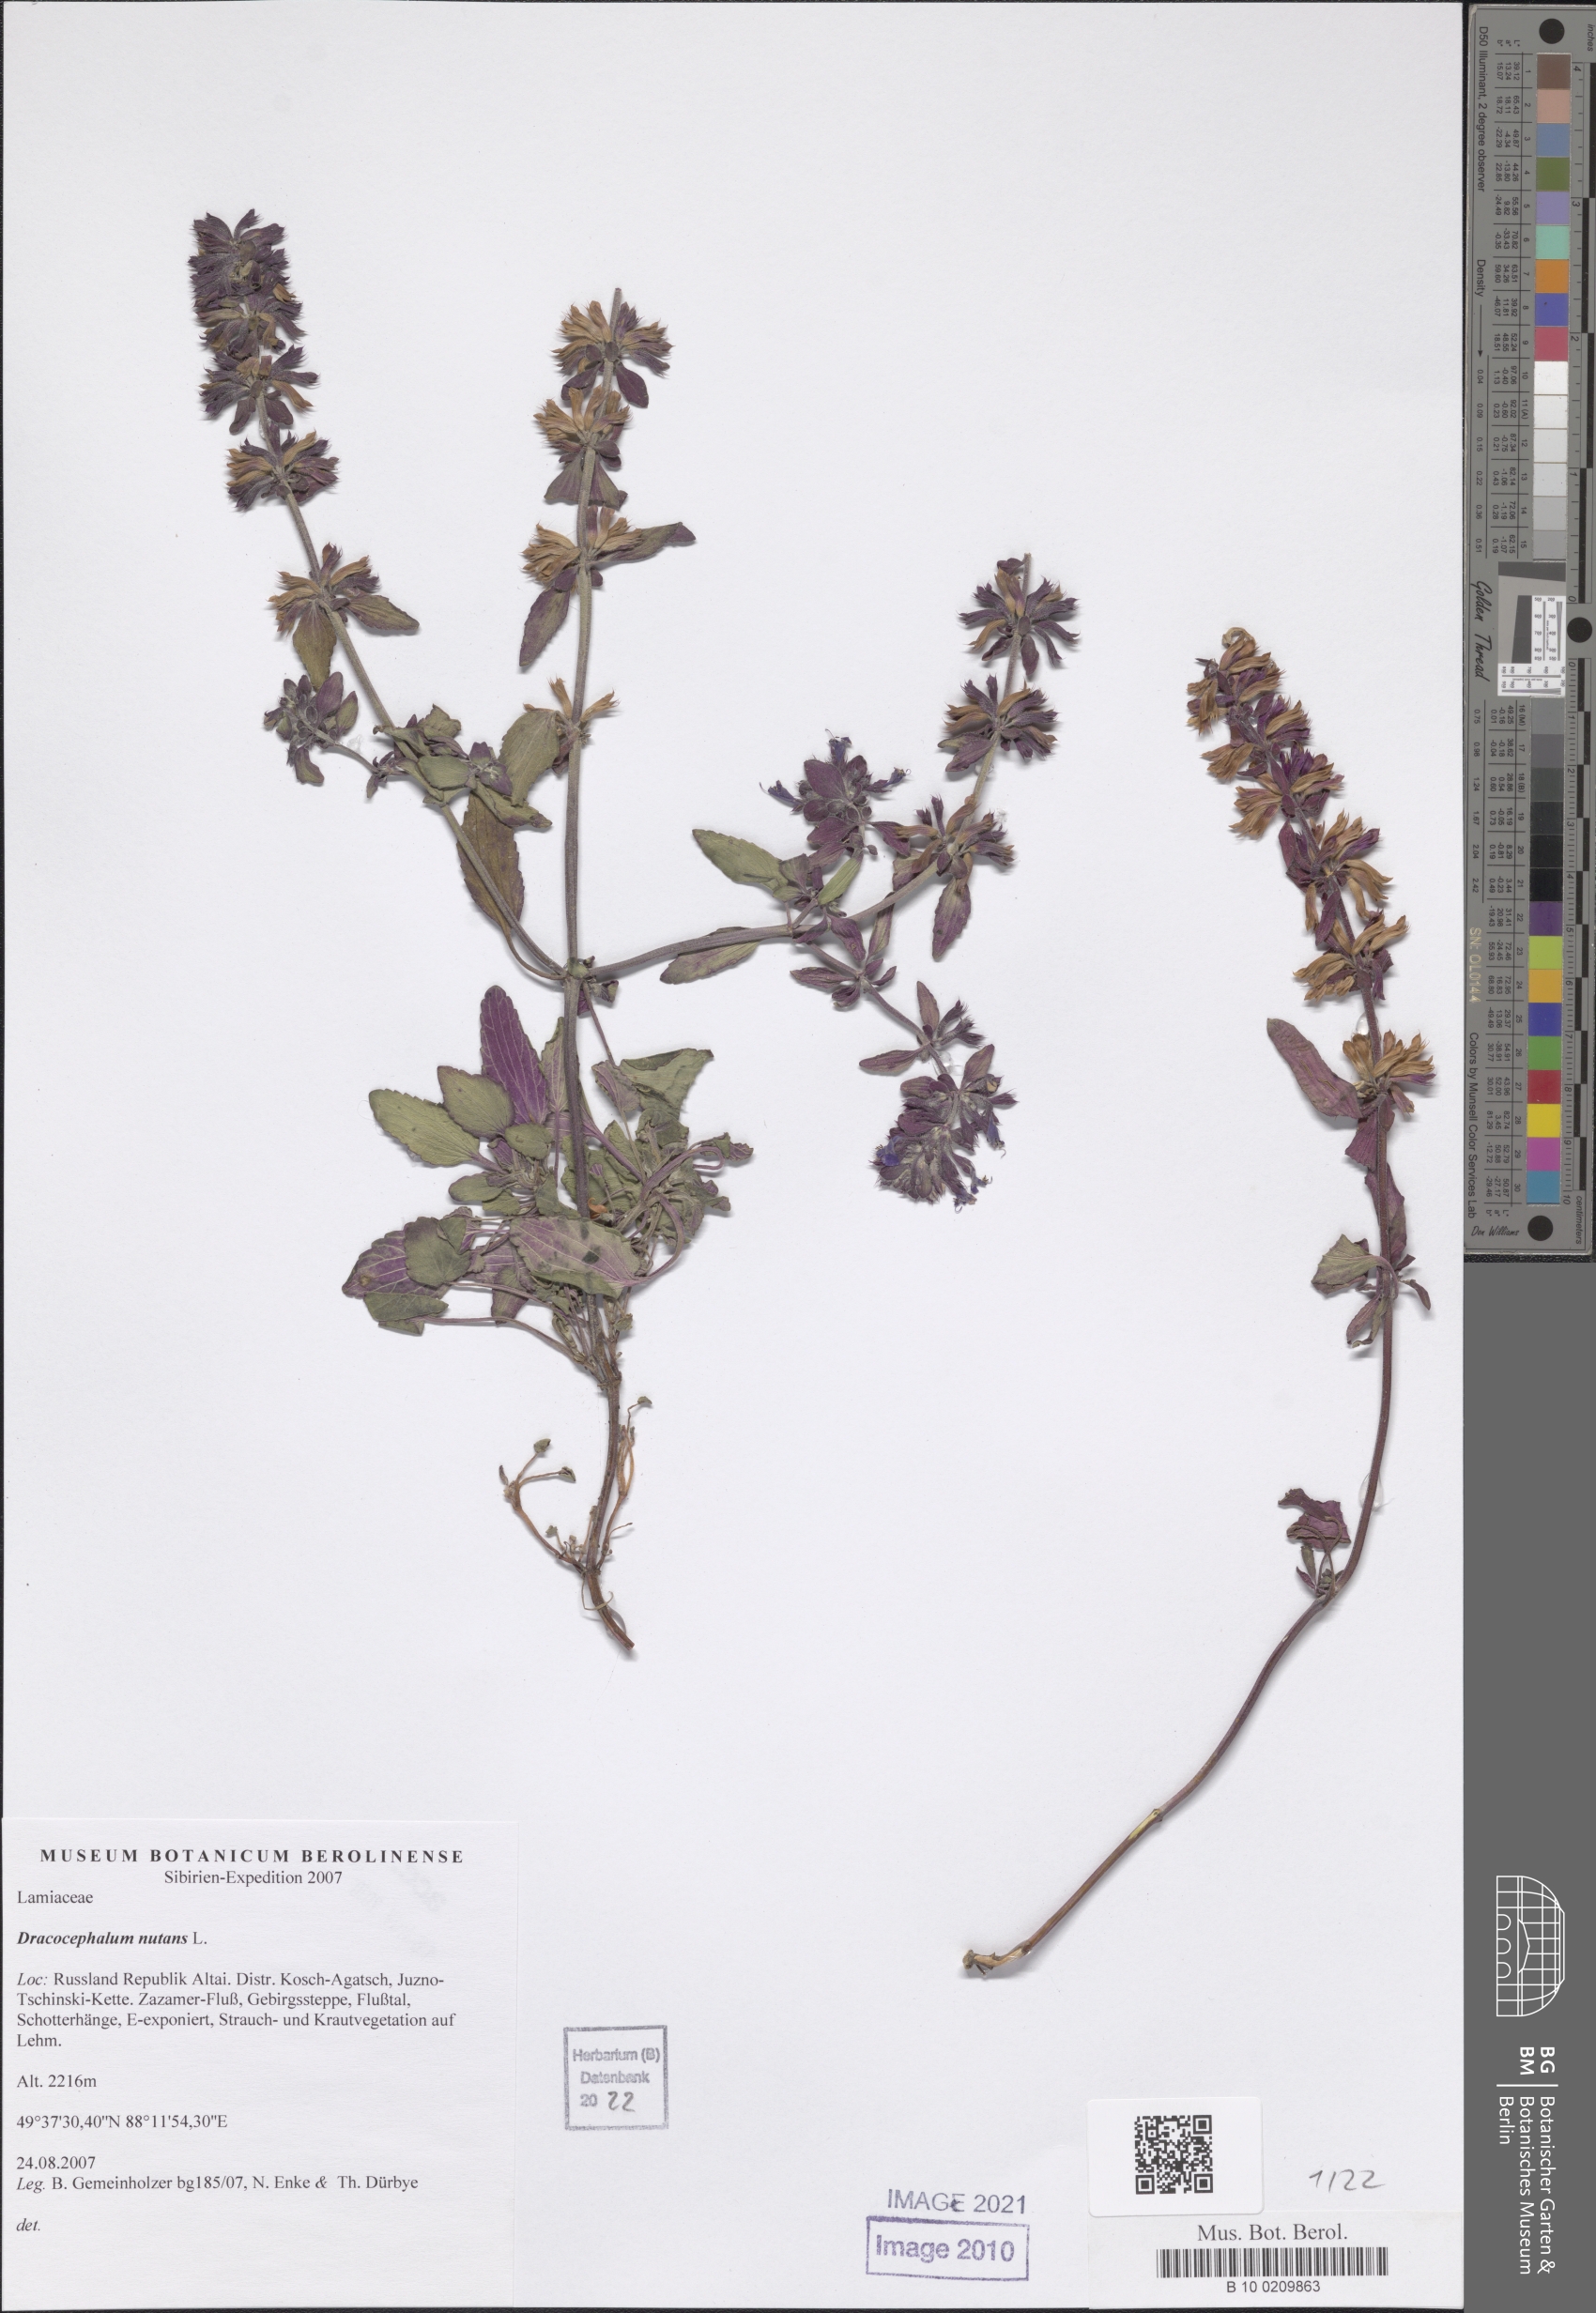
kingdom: Plantae
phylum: Tracheophyta
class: Magnoliopsida
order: Lamiales
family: Lamiaceae
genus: Dracocephalum
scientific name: Dracocephalum nutans
